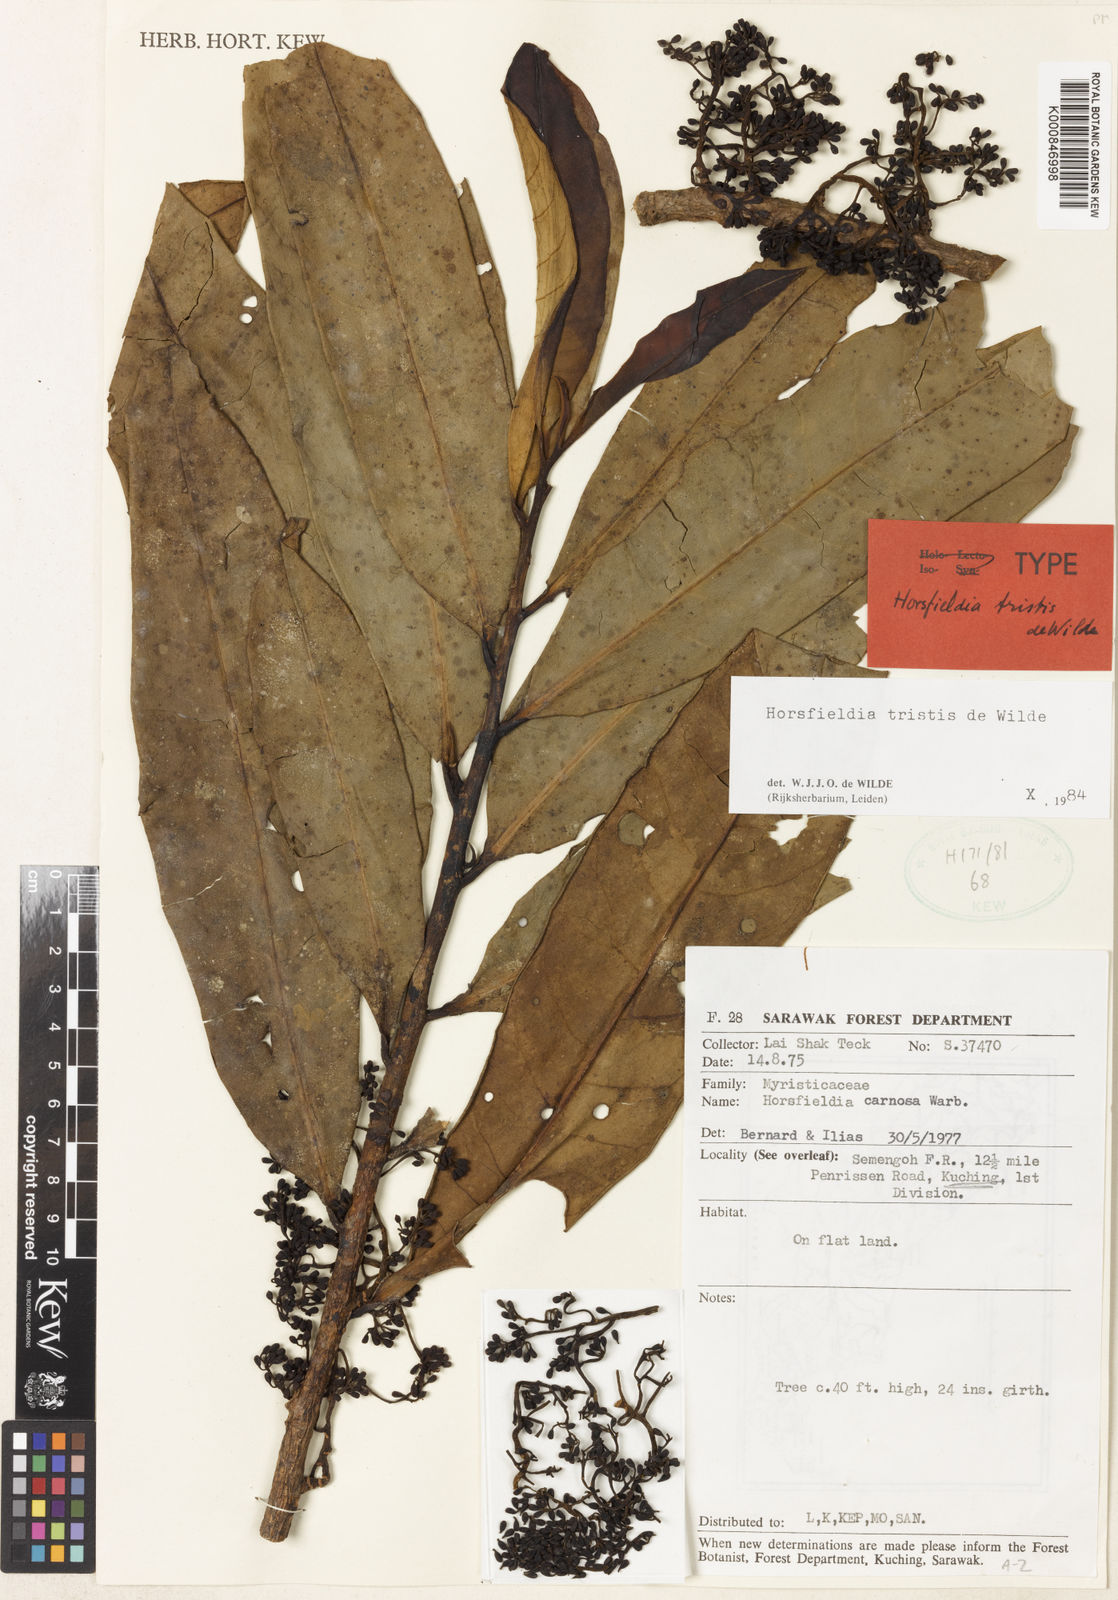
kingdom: Plantae
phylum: Tracheophyta
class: Magnoliopsida
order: Magnoliales
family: Myristicaceae
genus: Horsfieldia
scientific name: Horsfieldia tristis
